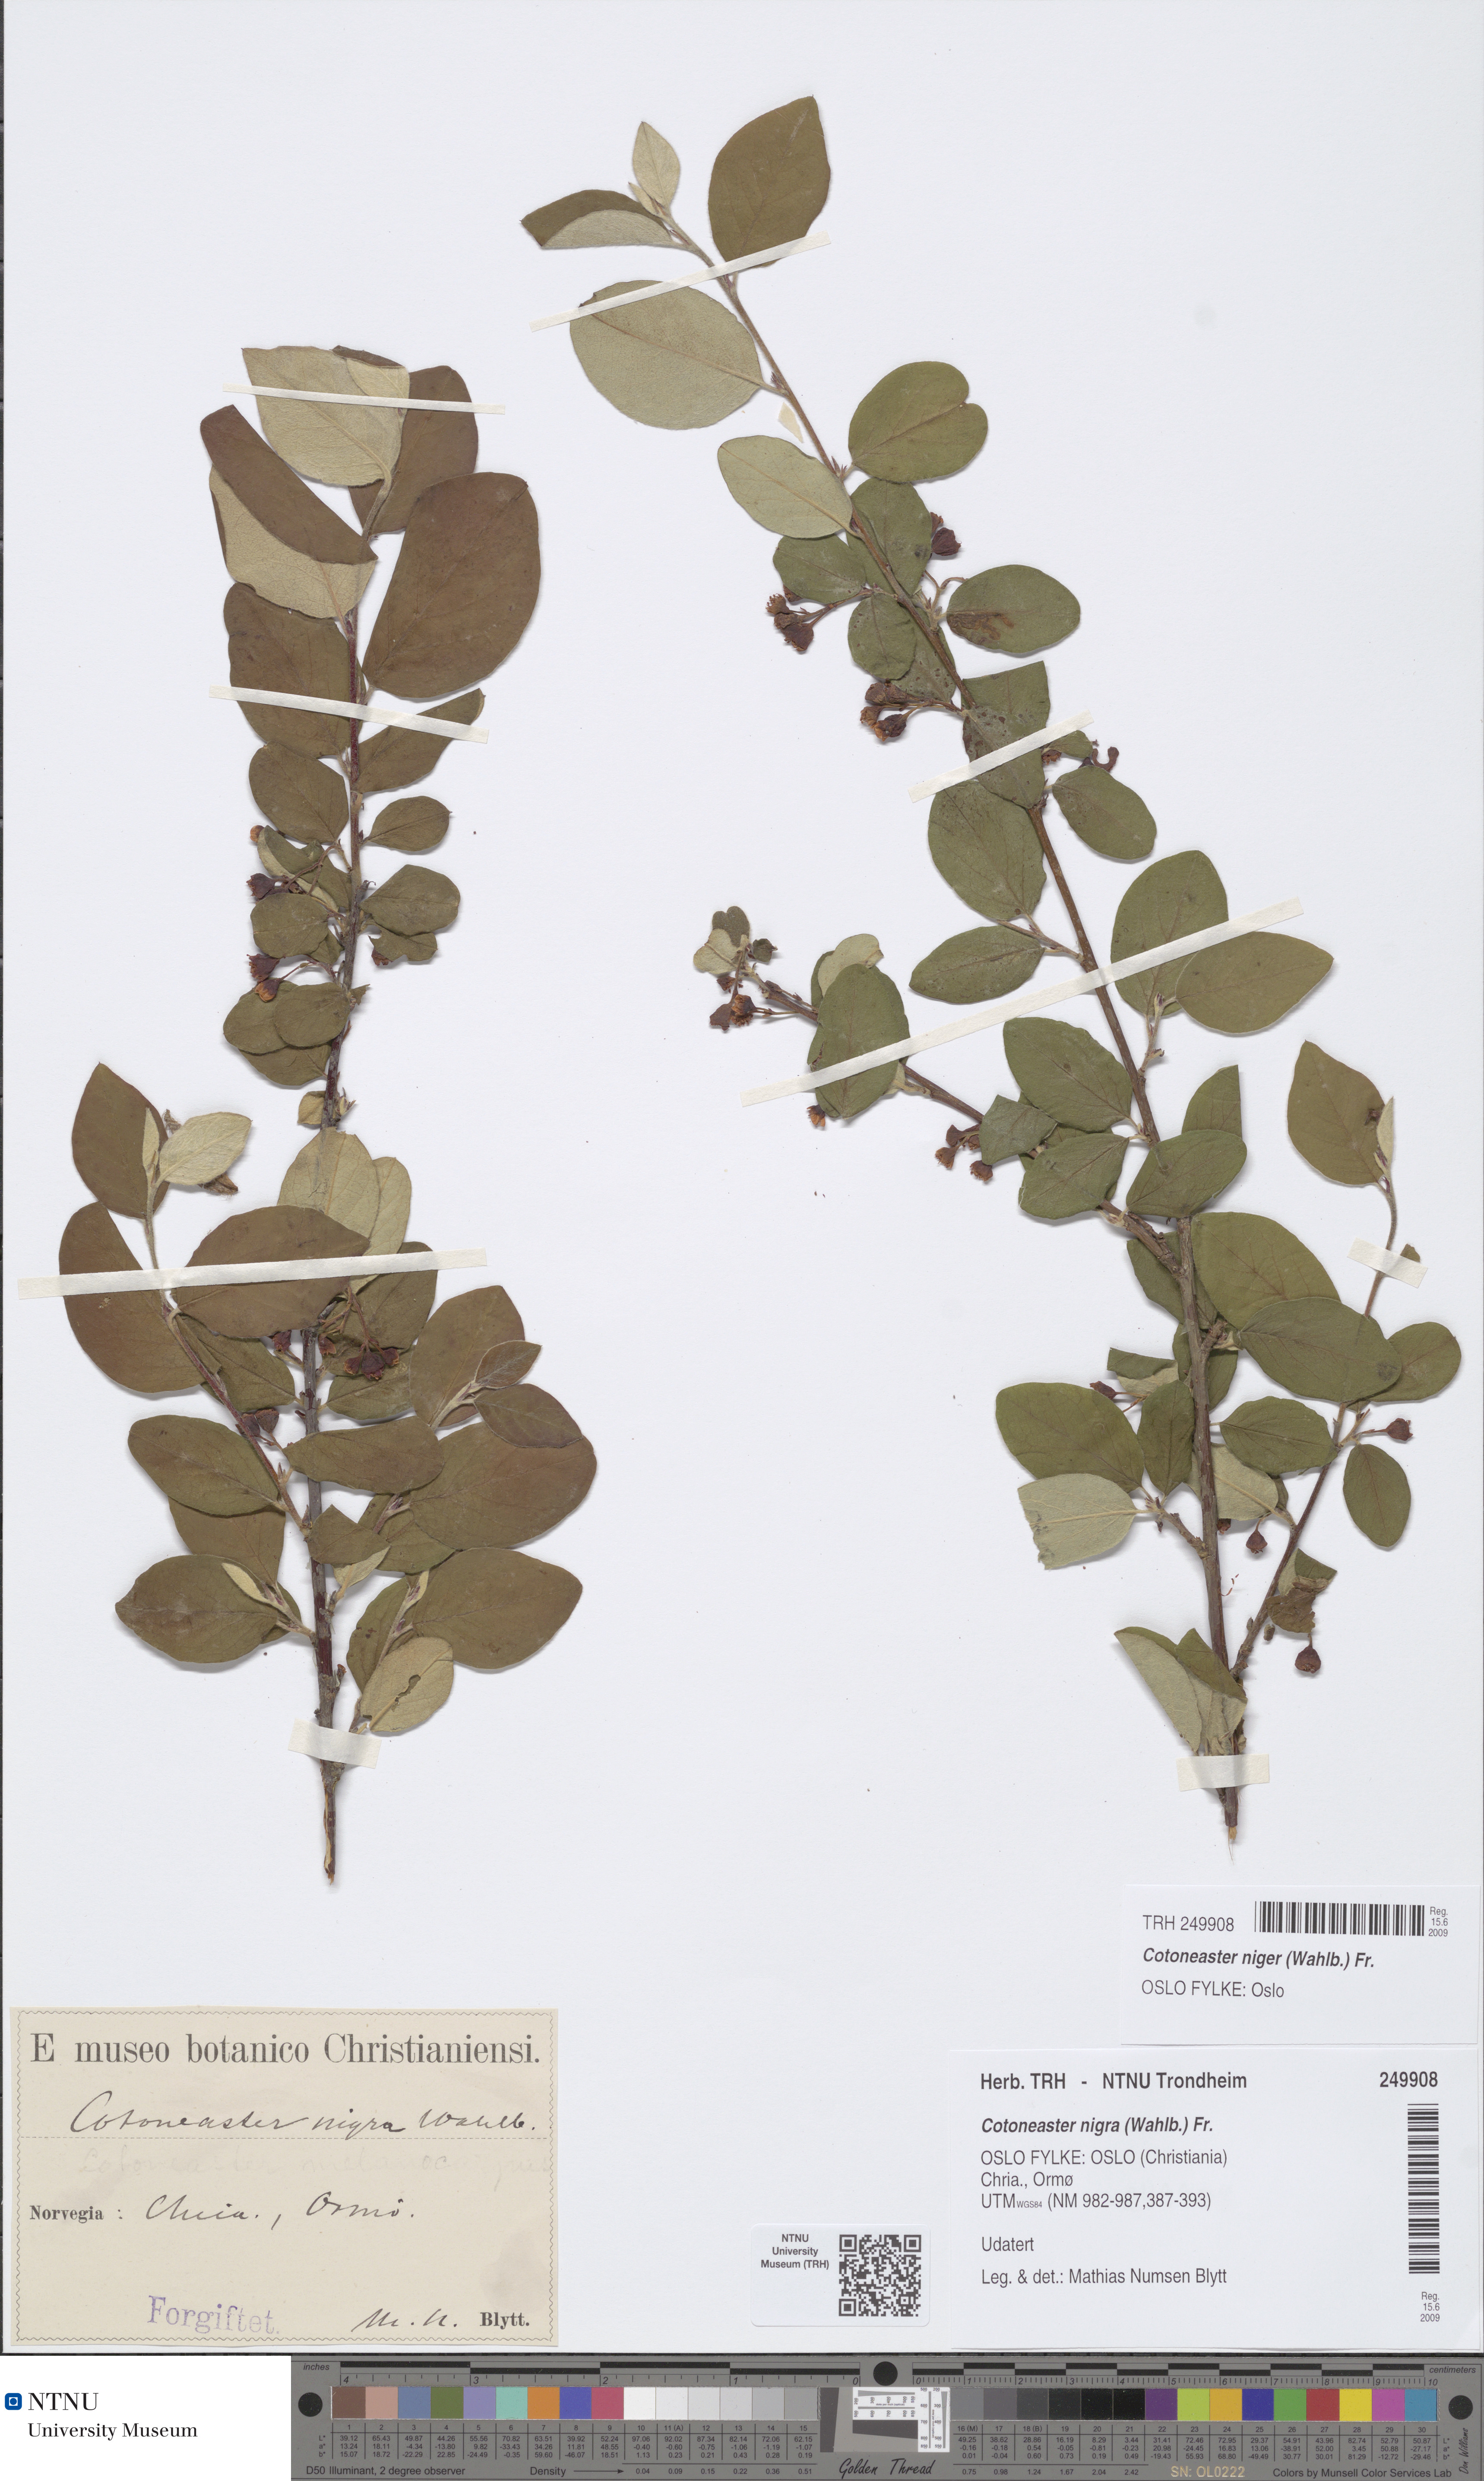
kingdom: Plantae
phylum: Tracheophyta
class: Magnoliopsida
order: Rosales
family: Rosaceae
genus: Cotoneaster
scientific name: Cotoneaster niger
